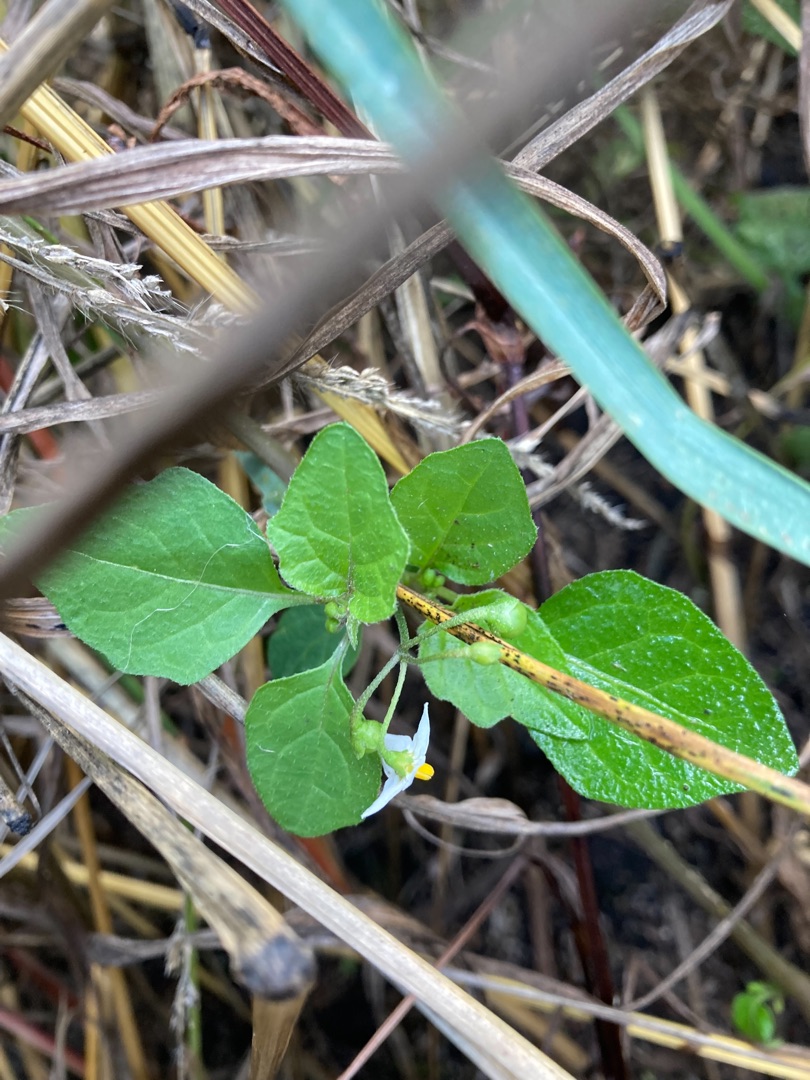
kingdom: Plantae
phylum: Tracheophyta
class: Magnoliopsida
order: Solanales
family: Solanaceae
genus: Solanum
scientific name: Solanum nigrum
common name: Sort natskygge
